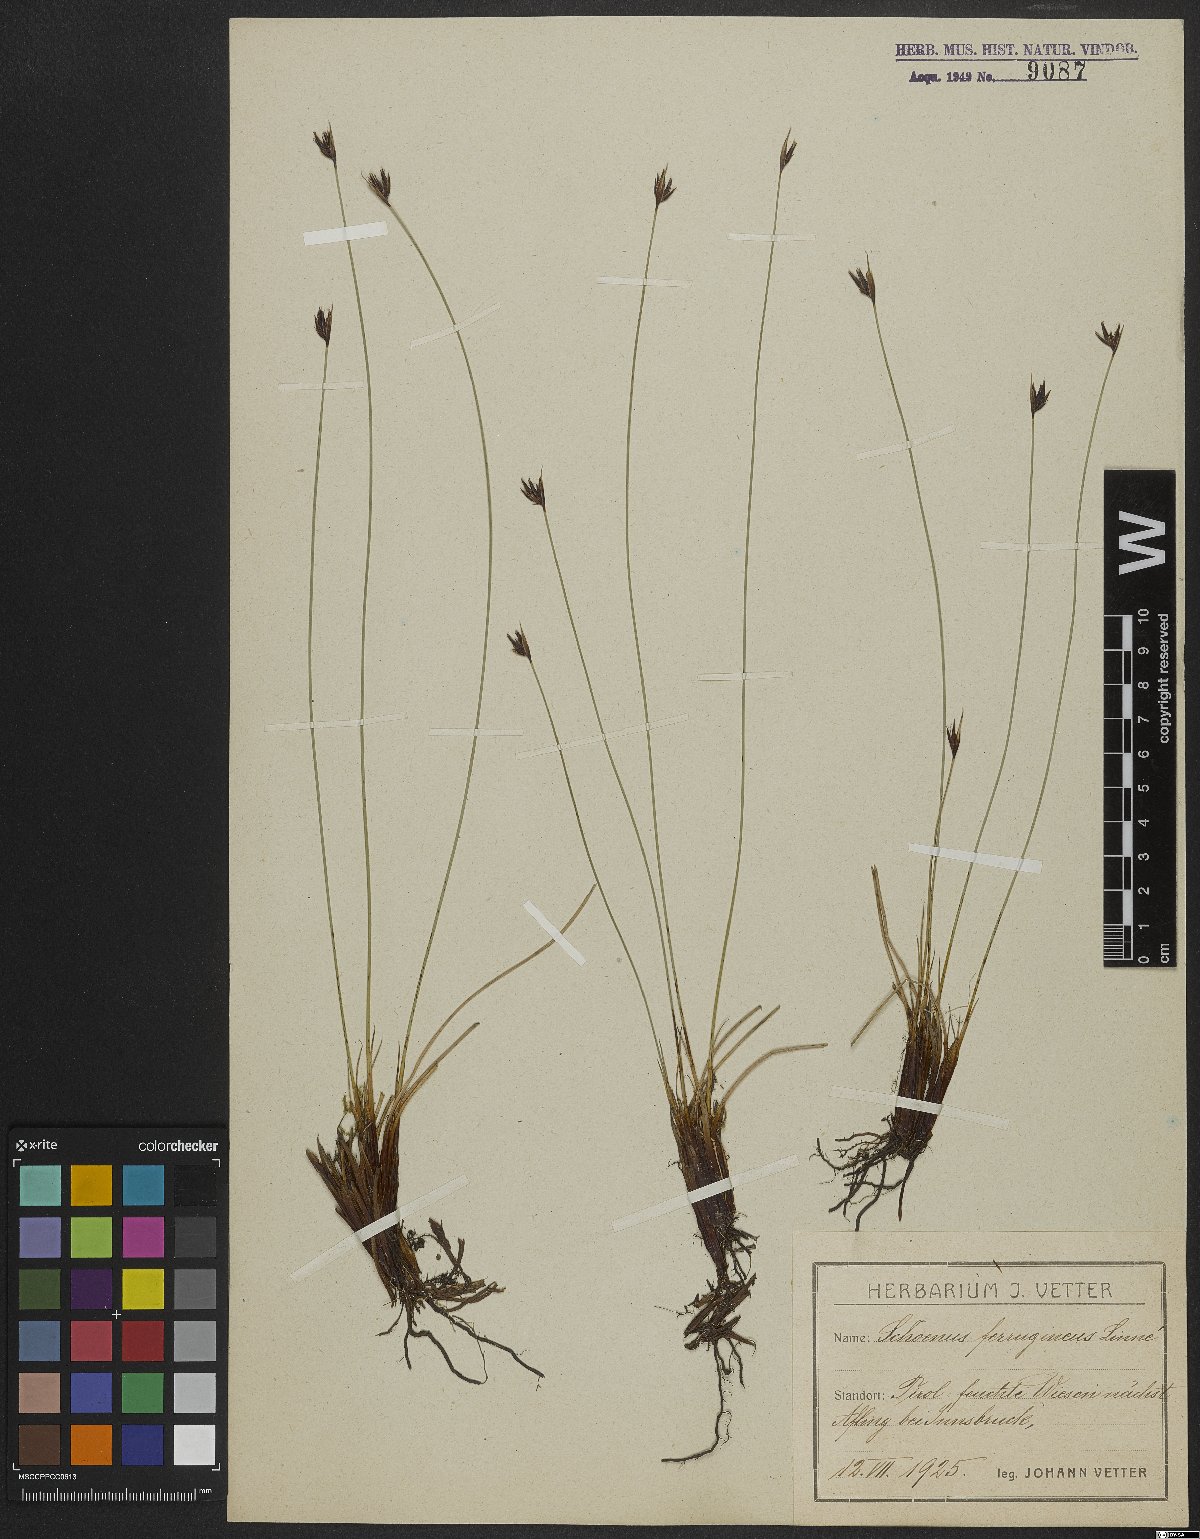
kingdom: Plantae
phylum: Tracheophyta
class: Liliopsida
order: Poales
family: Cyperaceae
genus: Schoenus
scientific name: Schoenus ferrugineus
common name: Brown bog-rush
